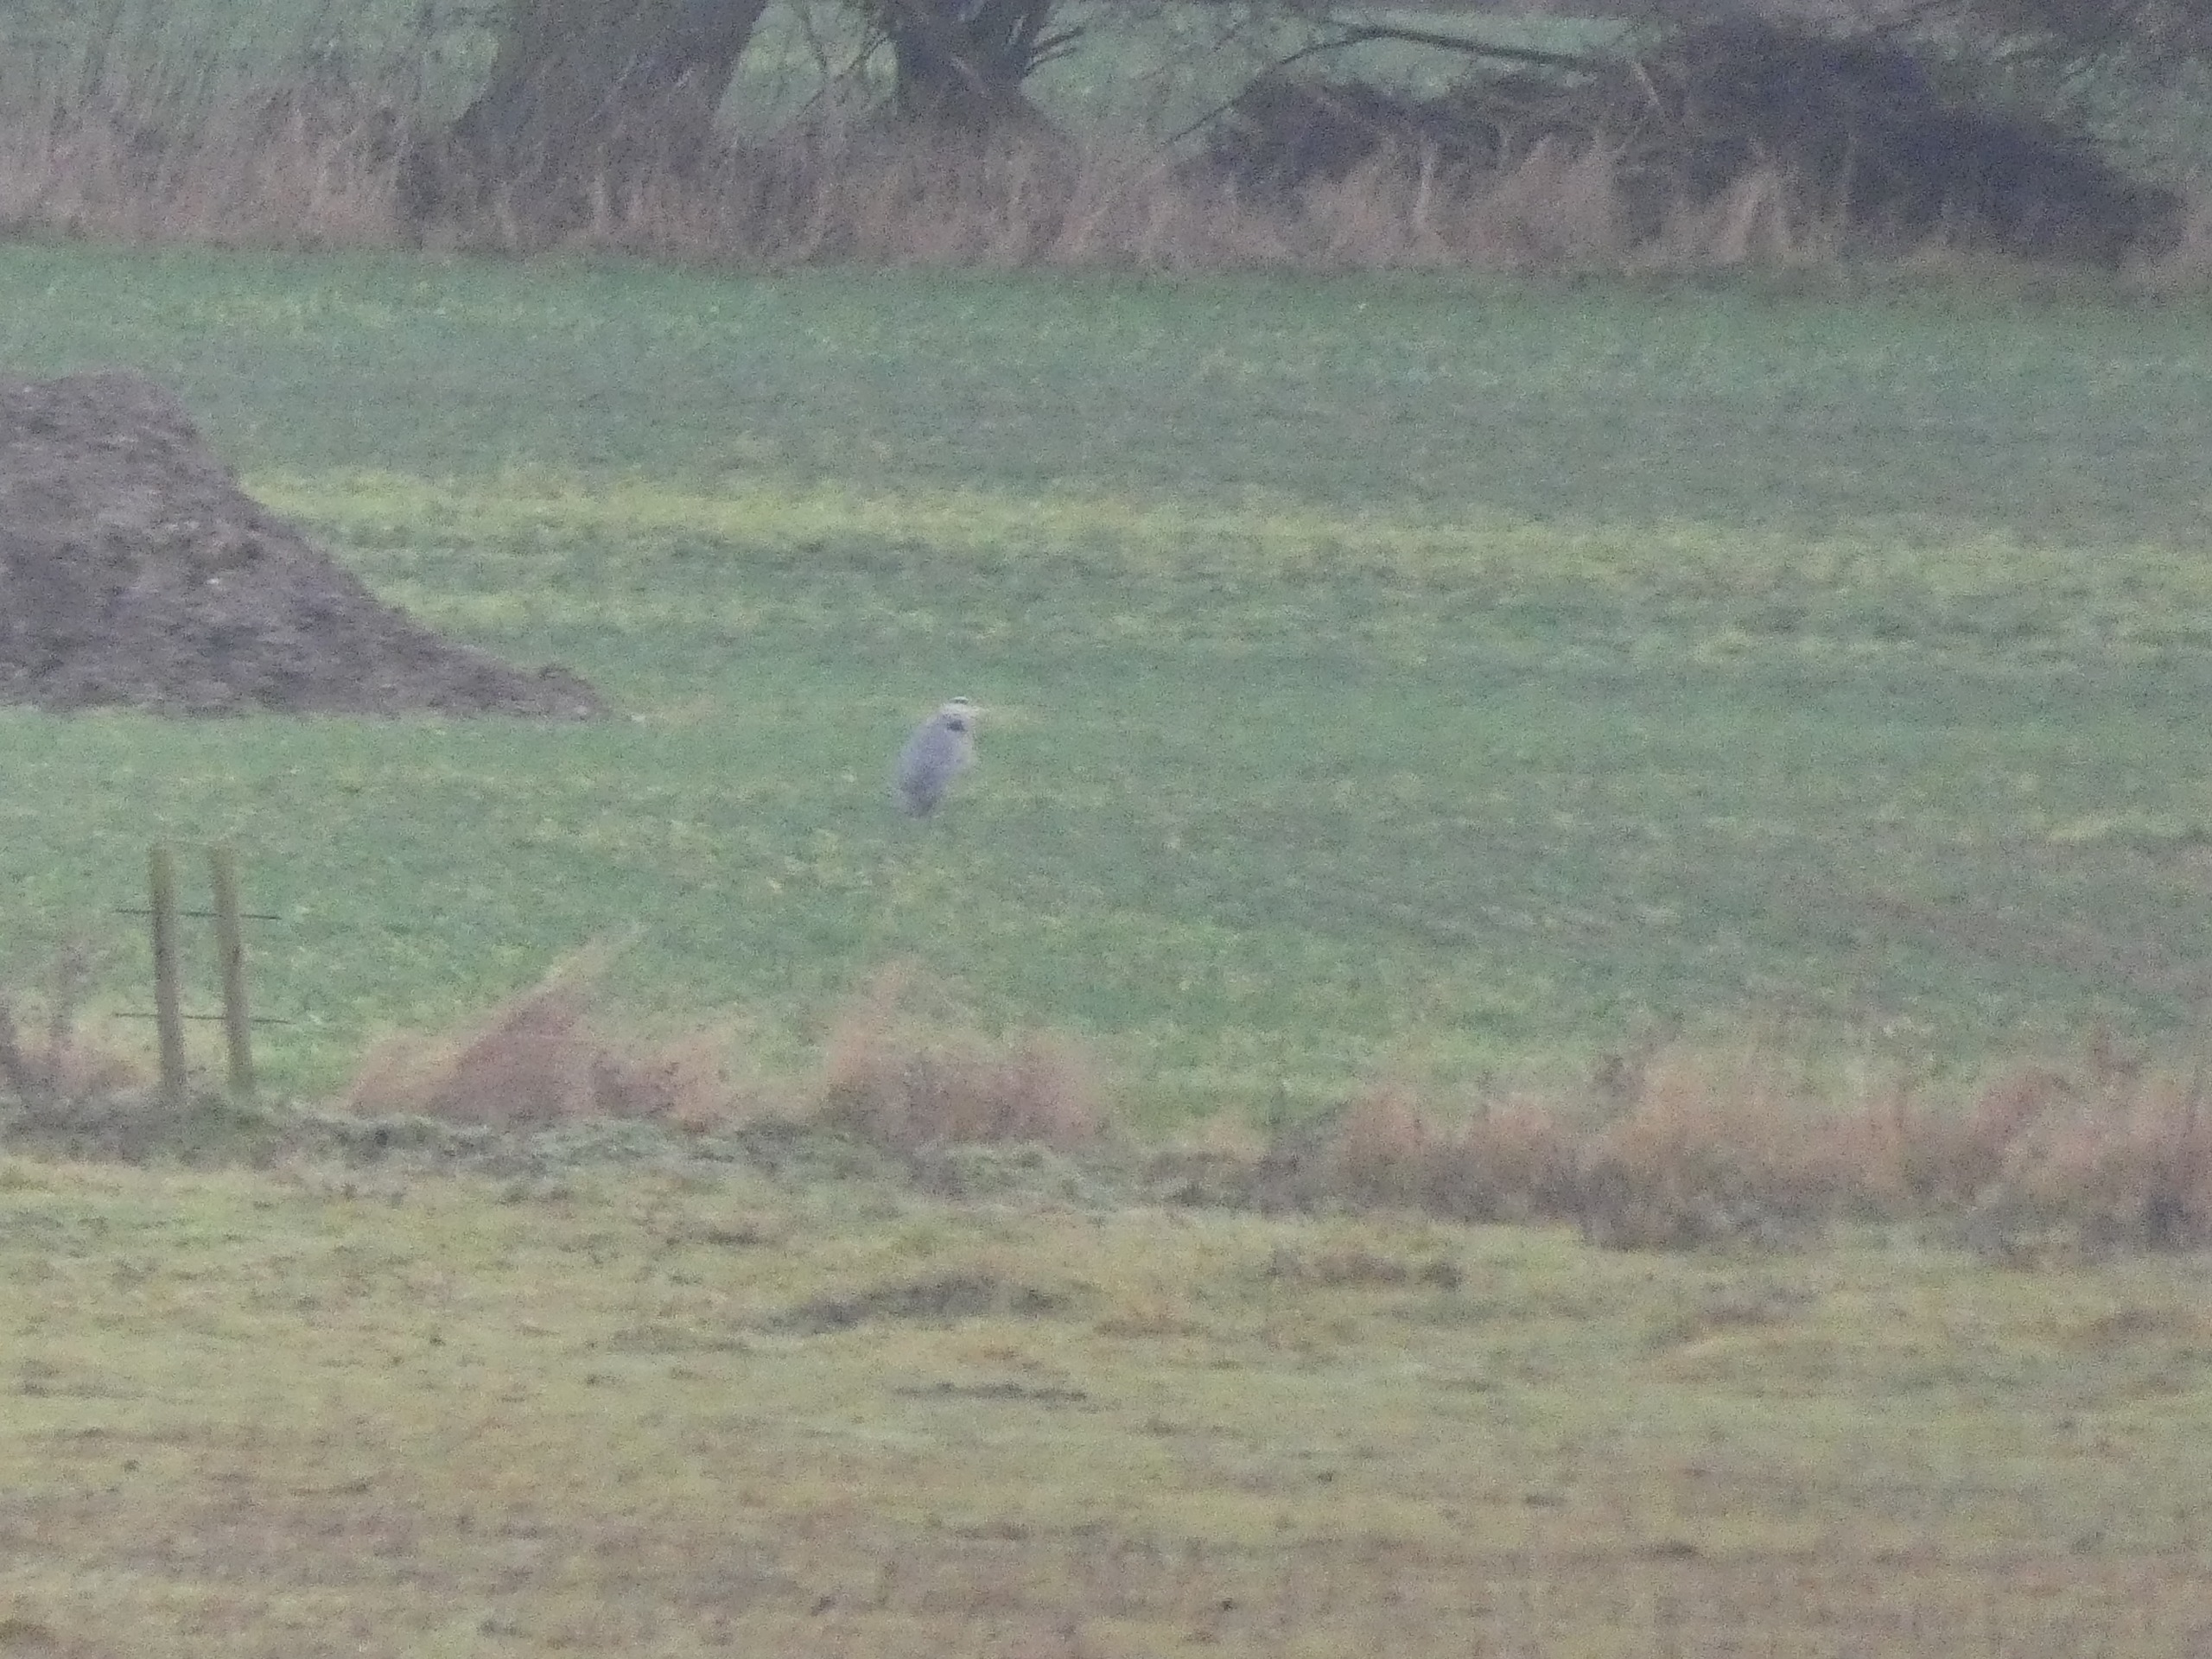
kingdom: Animalia
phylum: Chordata
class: Aves
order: Pelecaniformes
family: Ardeidae
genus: Ardea
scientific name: Ardea cinerea
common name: Fiskehejre
